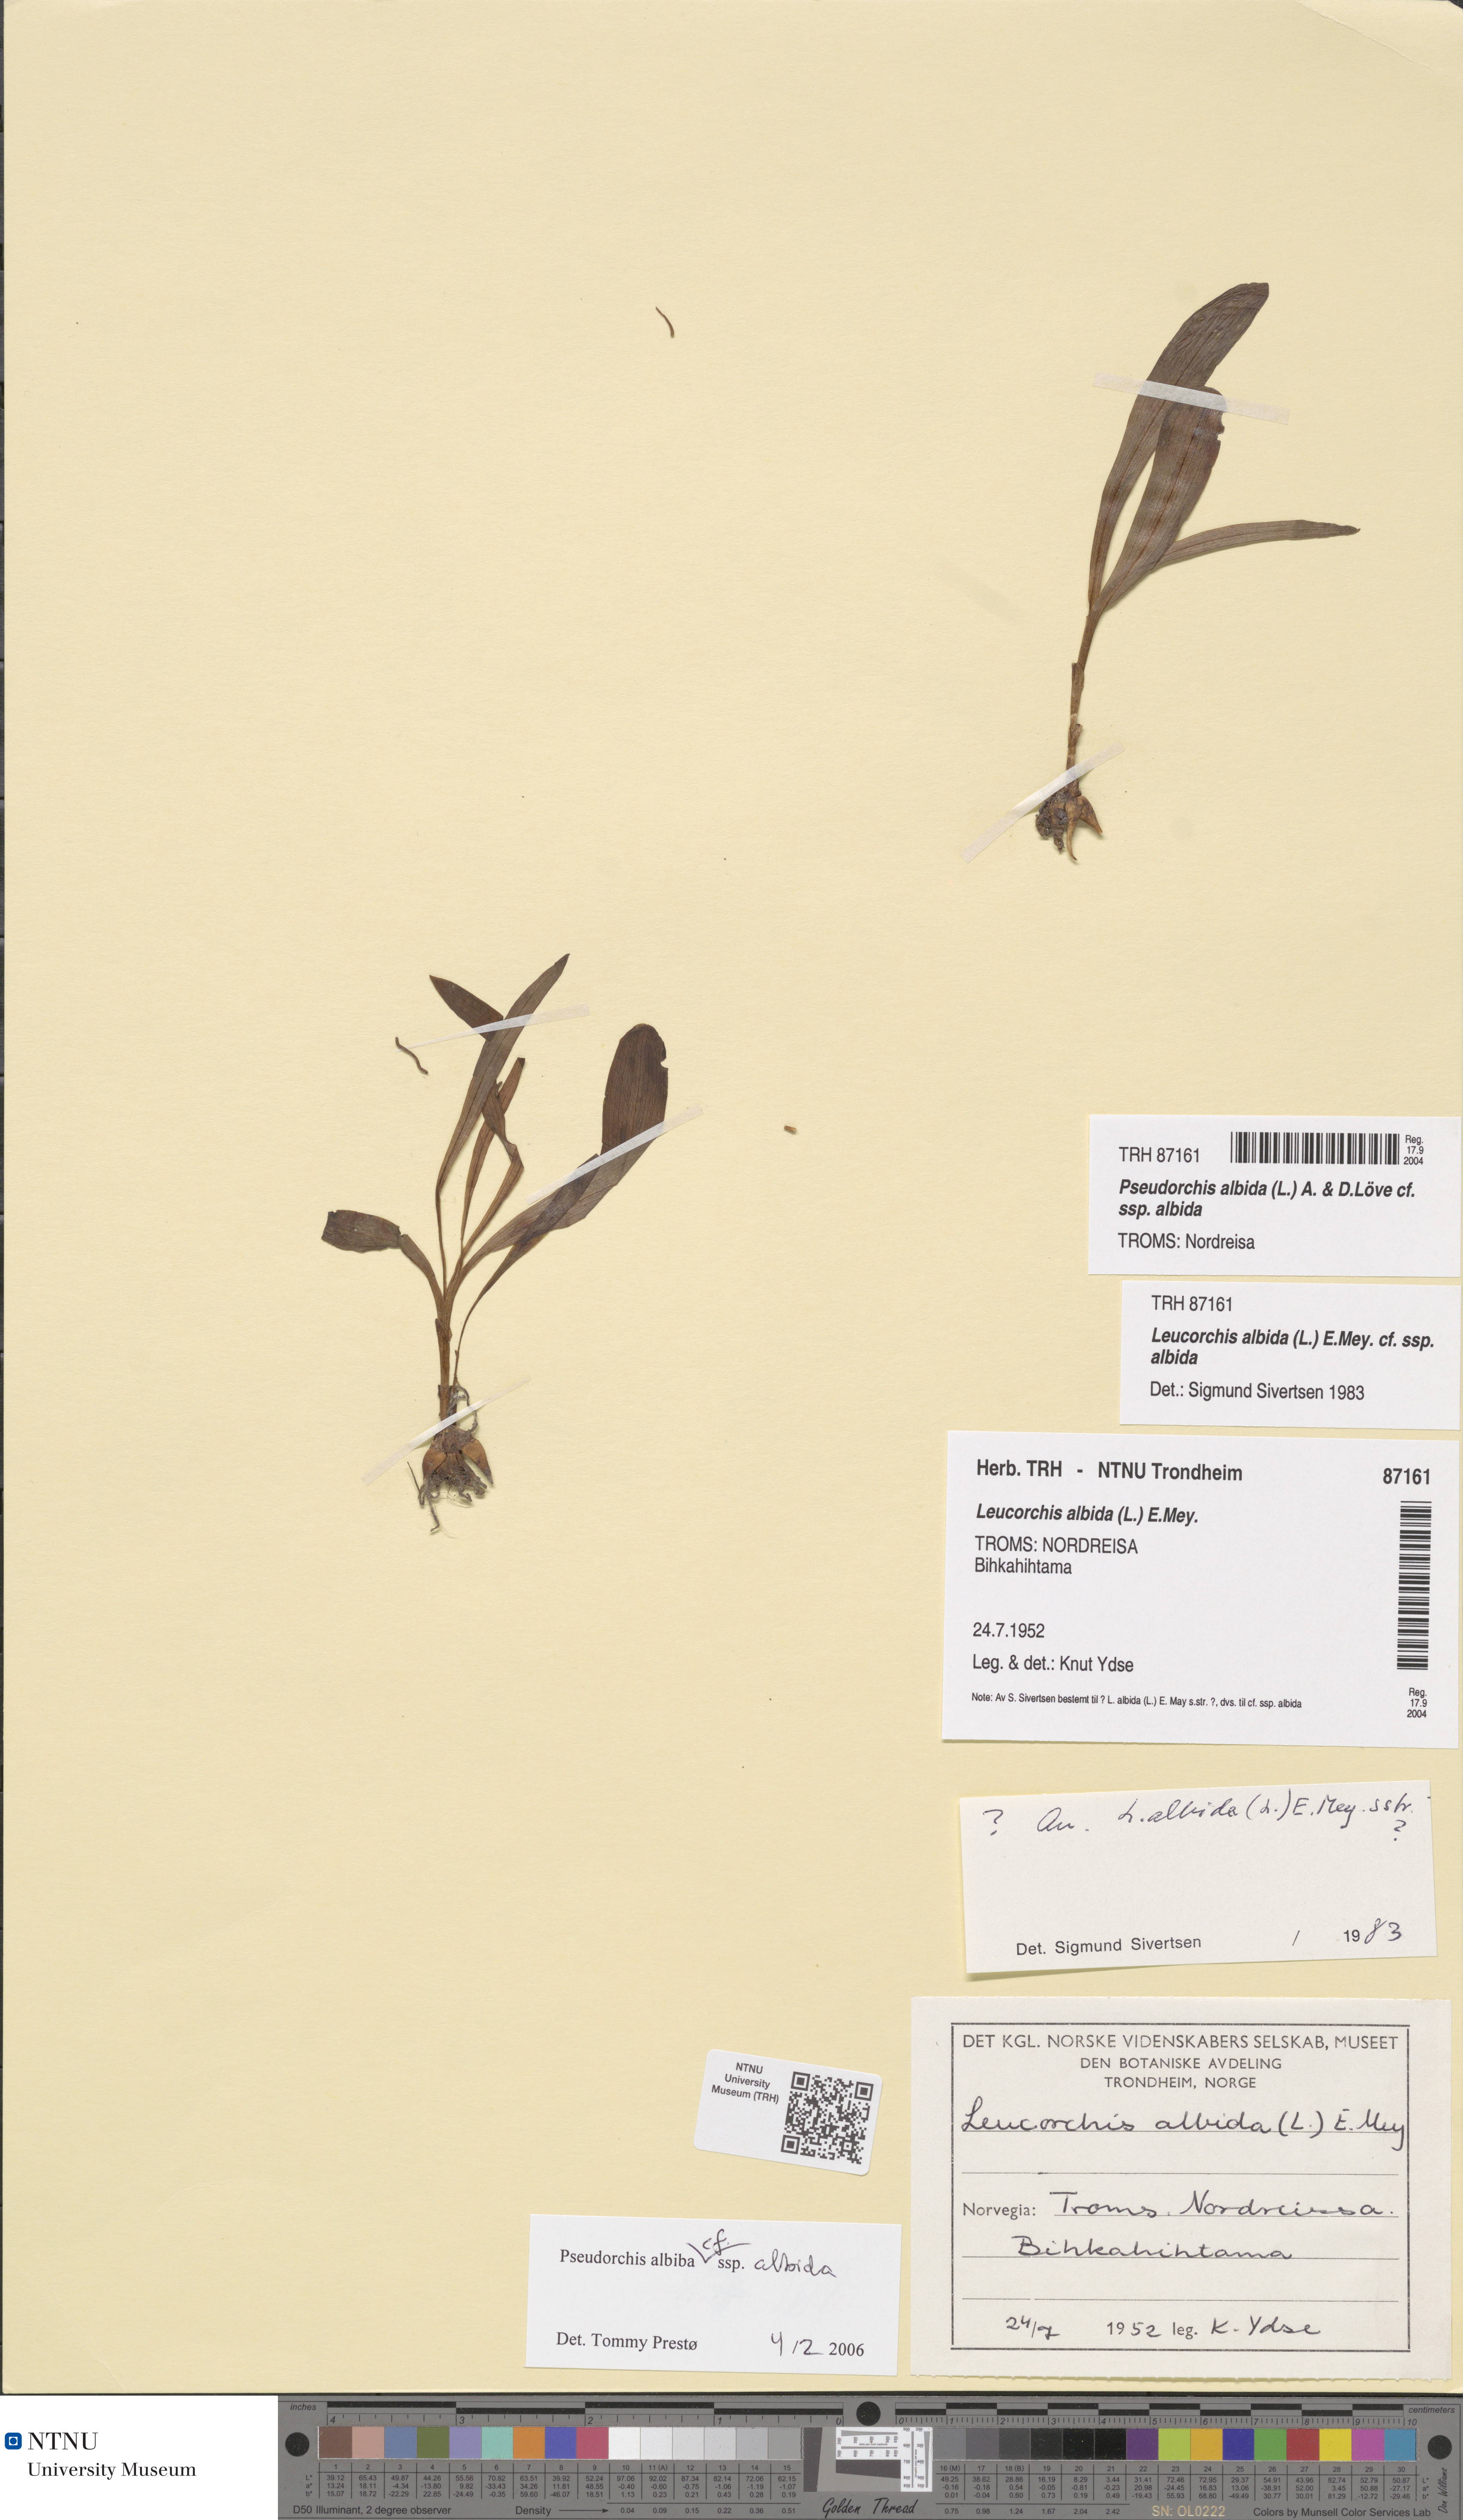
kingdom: Plantae
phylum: Tracheophyta
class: Liliopsida
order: Asparagales
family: Orchidaceae
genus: Pseudorchis
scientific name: Pseudorchis albida
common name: Small-white orchid
